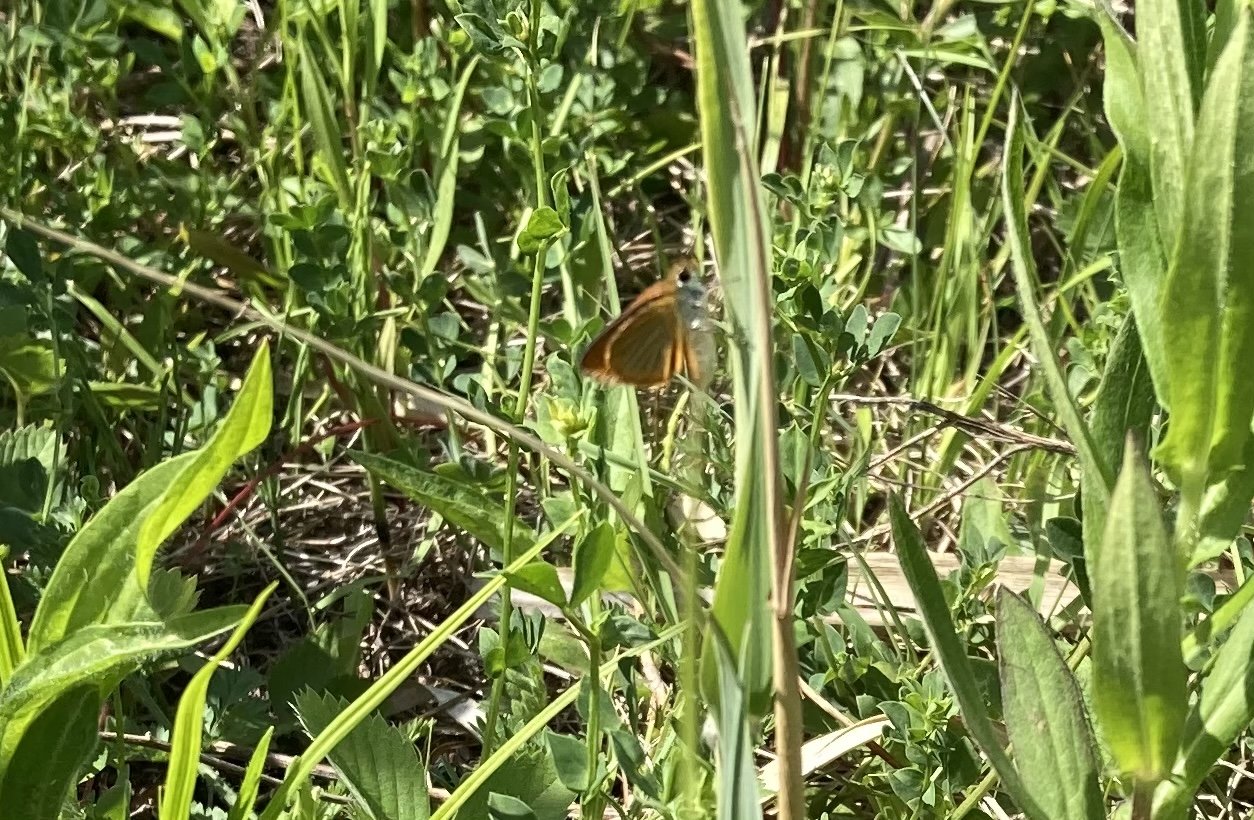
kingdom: Animalia
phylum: Arthropoda
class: Insecta
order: Lepidoptera
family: Hesperiidae
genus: Ancyloxypha
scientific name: Ancyloxypha numitor
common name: Least Skipper
